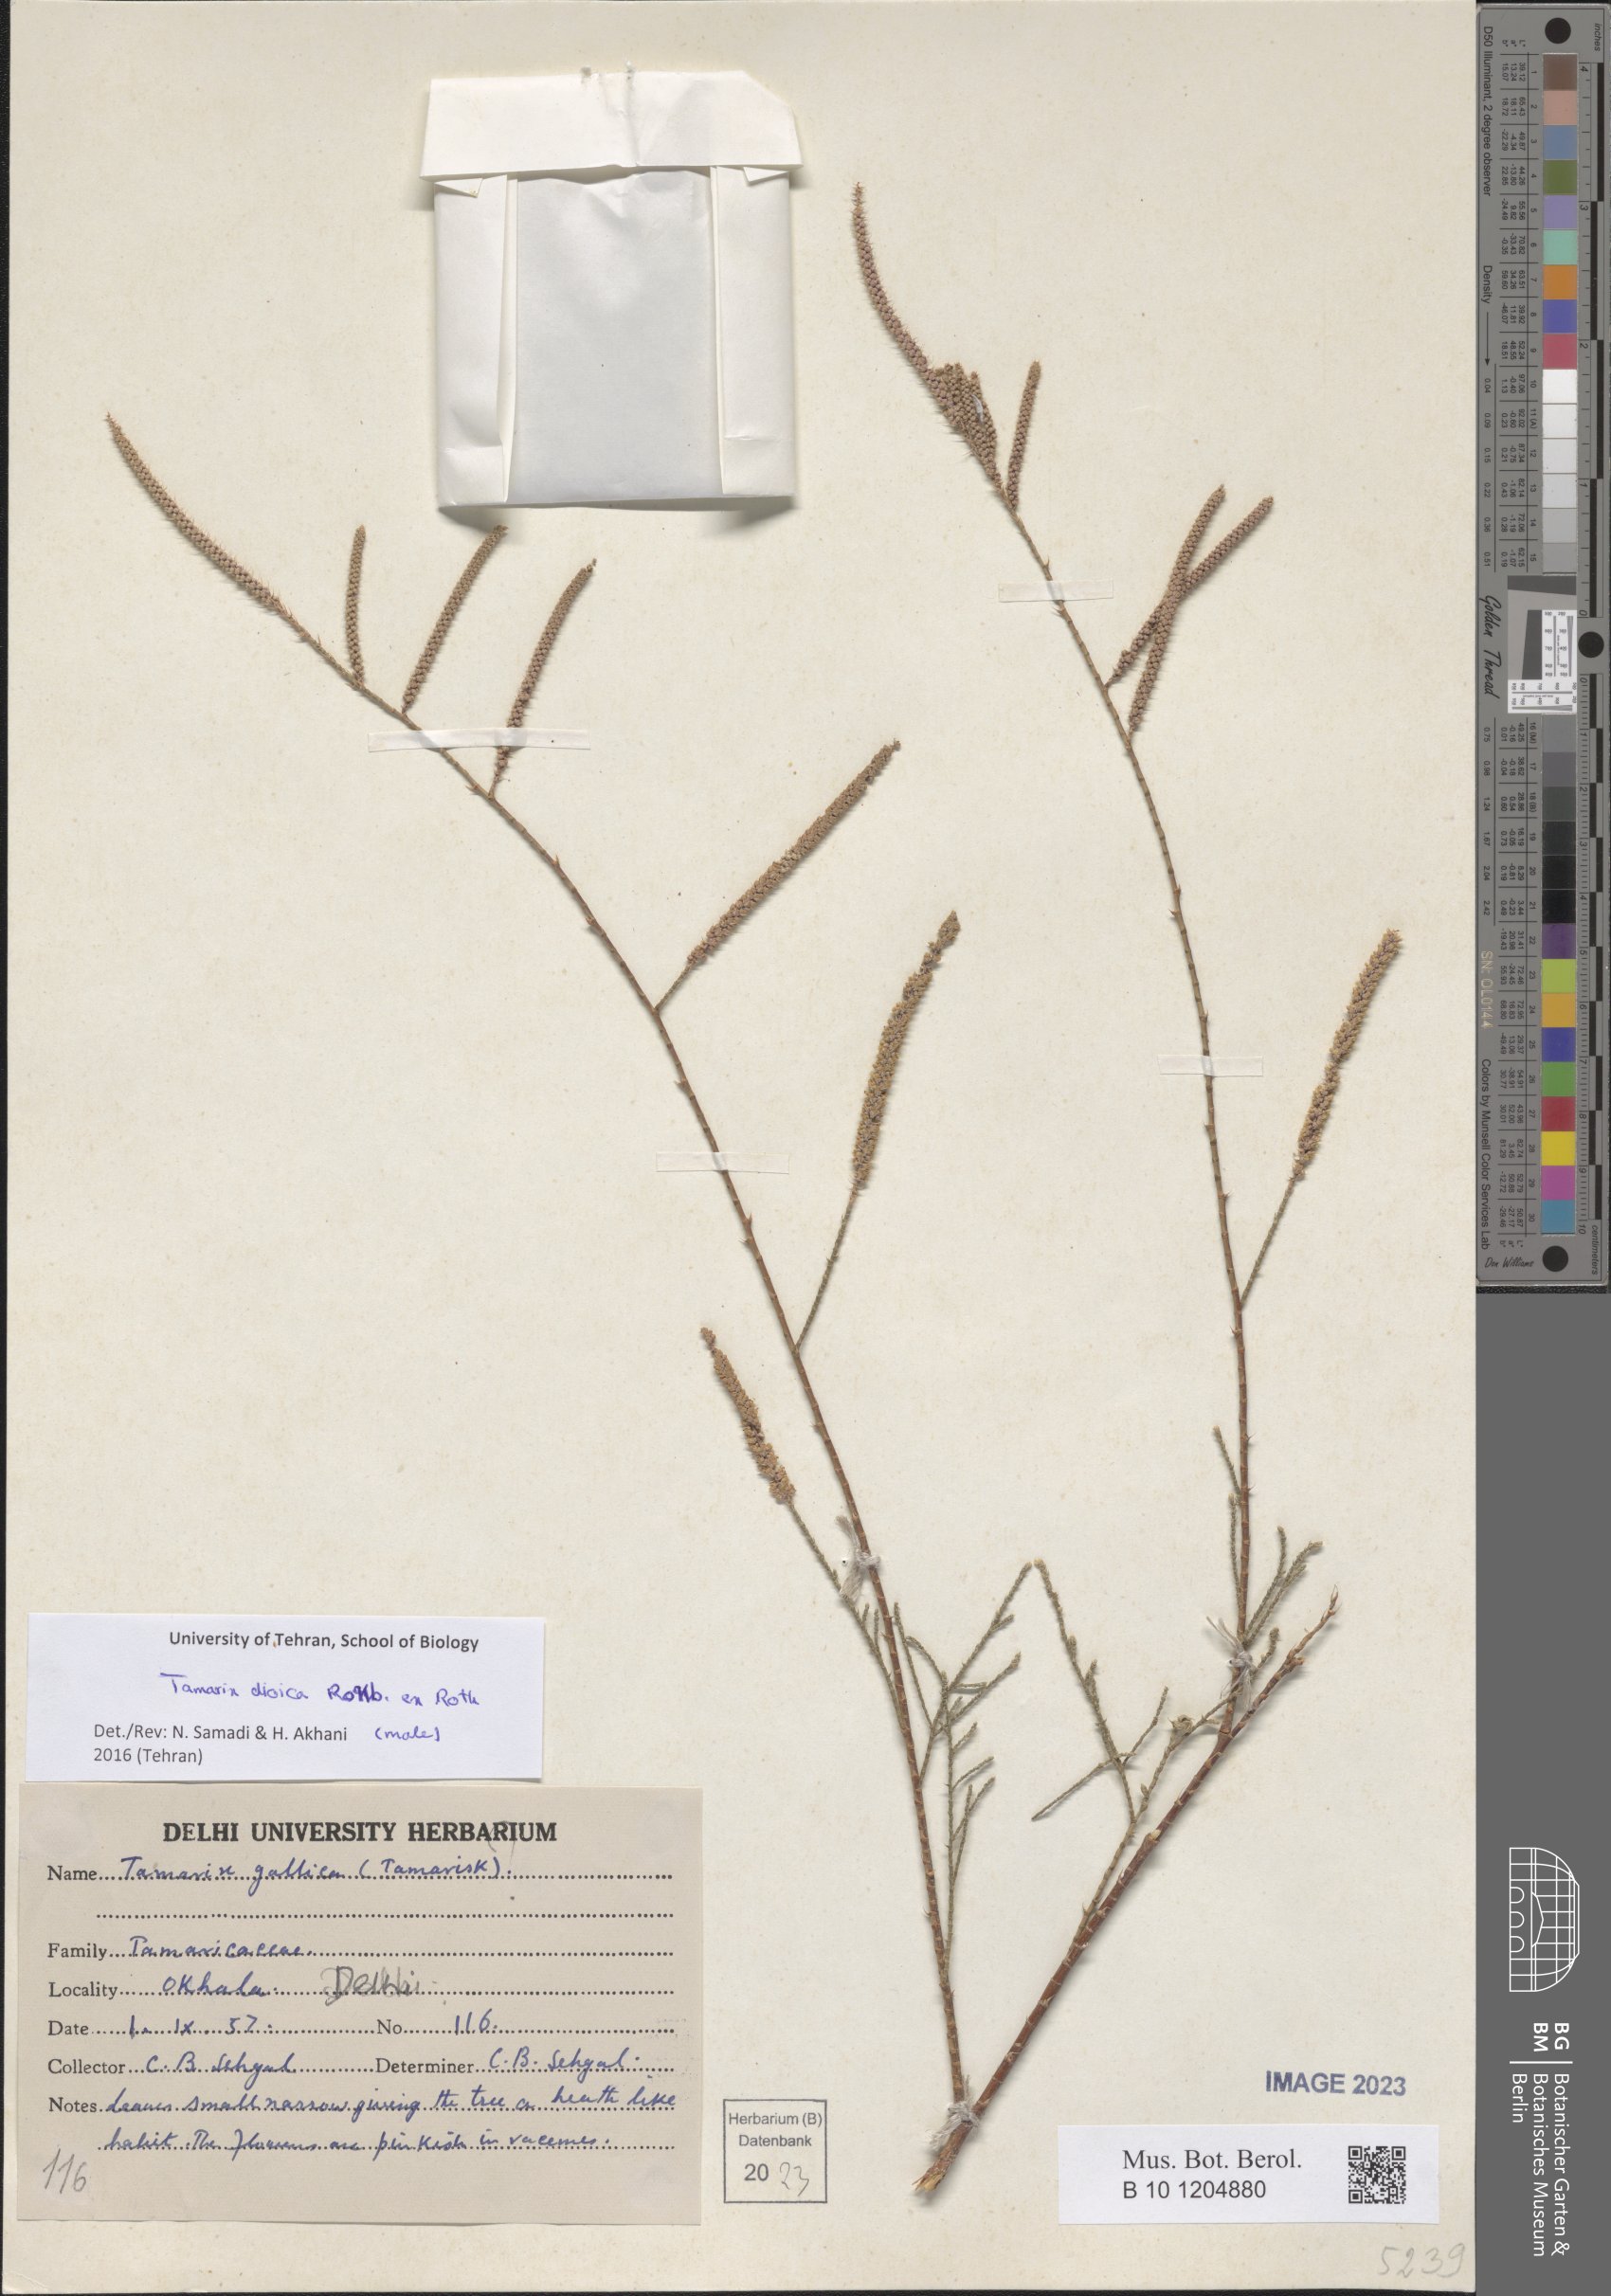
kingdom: Plantae
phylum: Tracheophyta
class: Magnoliopsida
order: Caryophyllales
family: Tamaricaceae
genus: Tamarix
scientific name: Tamarix dioica
